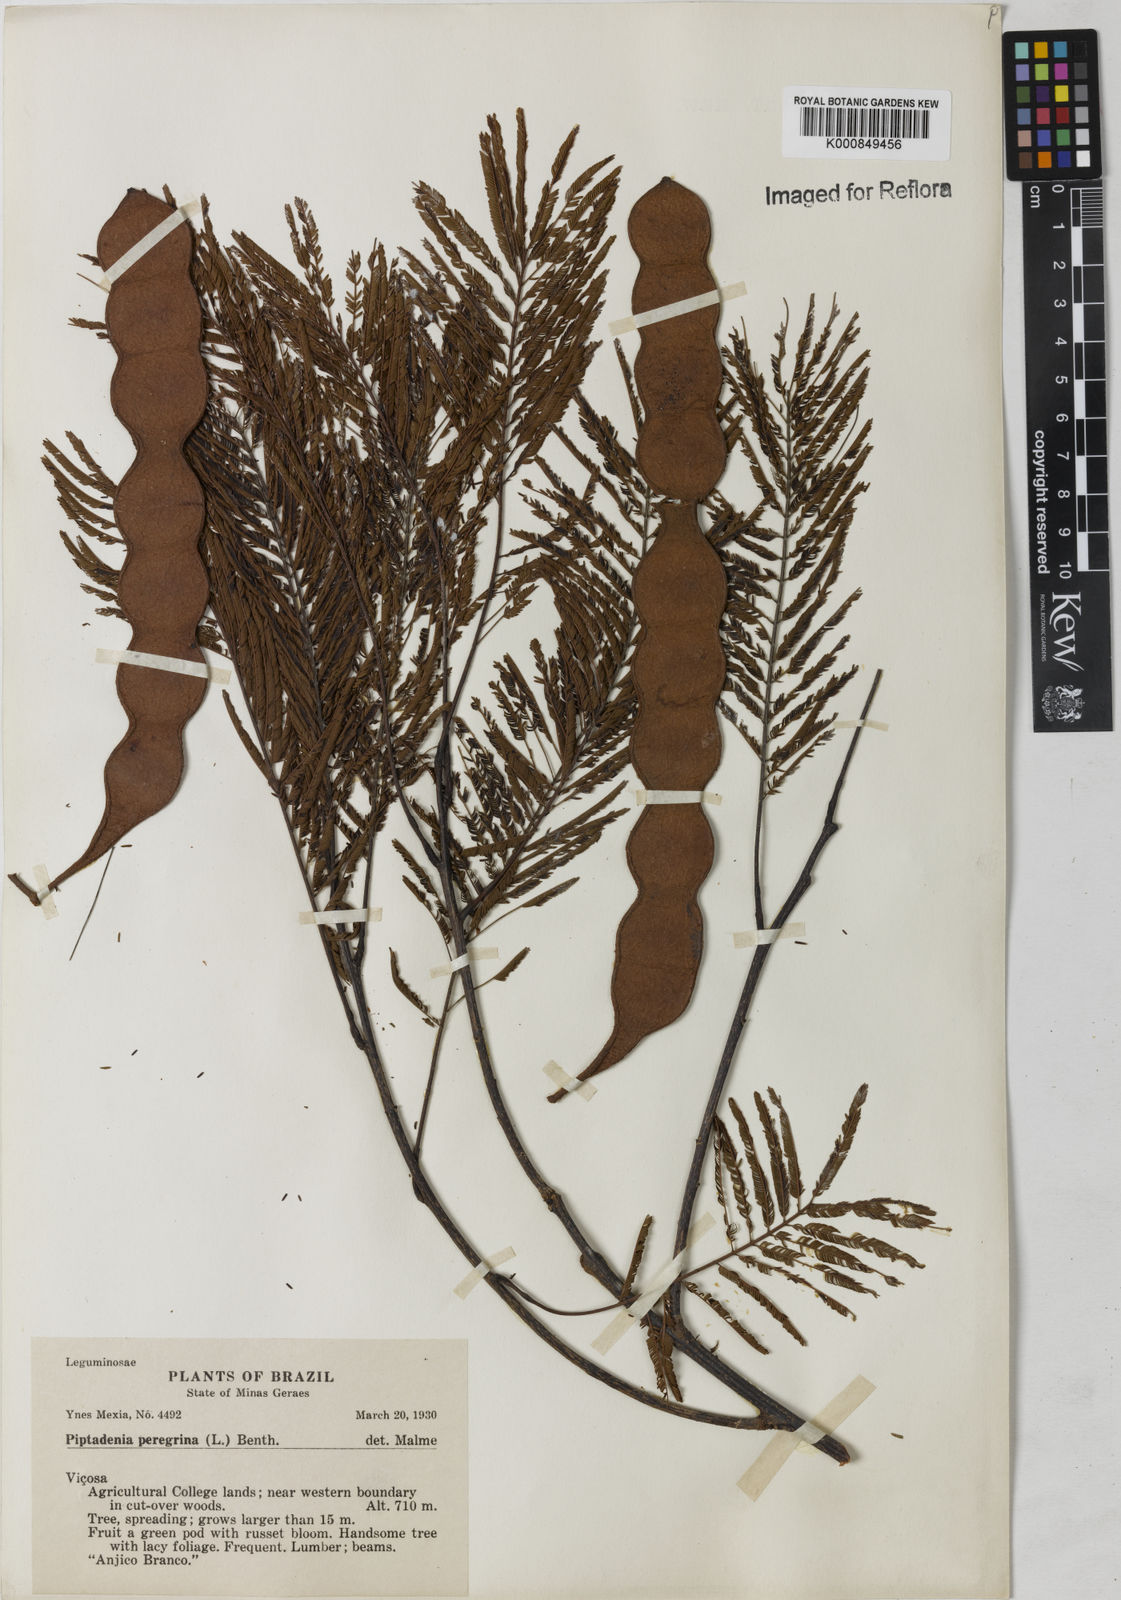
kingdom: Plantae
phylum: Tracheophyta
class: Magnoliopsida
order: Fabales
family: Fabaceae
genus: Anadenanthera
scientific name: Anadenanthera peregrina
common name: Cohoba
